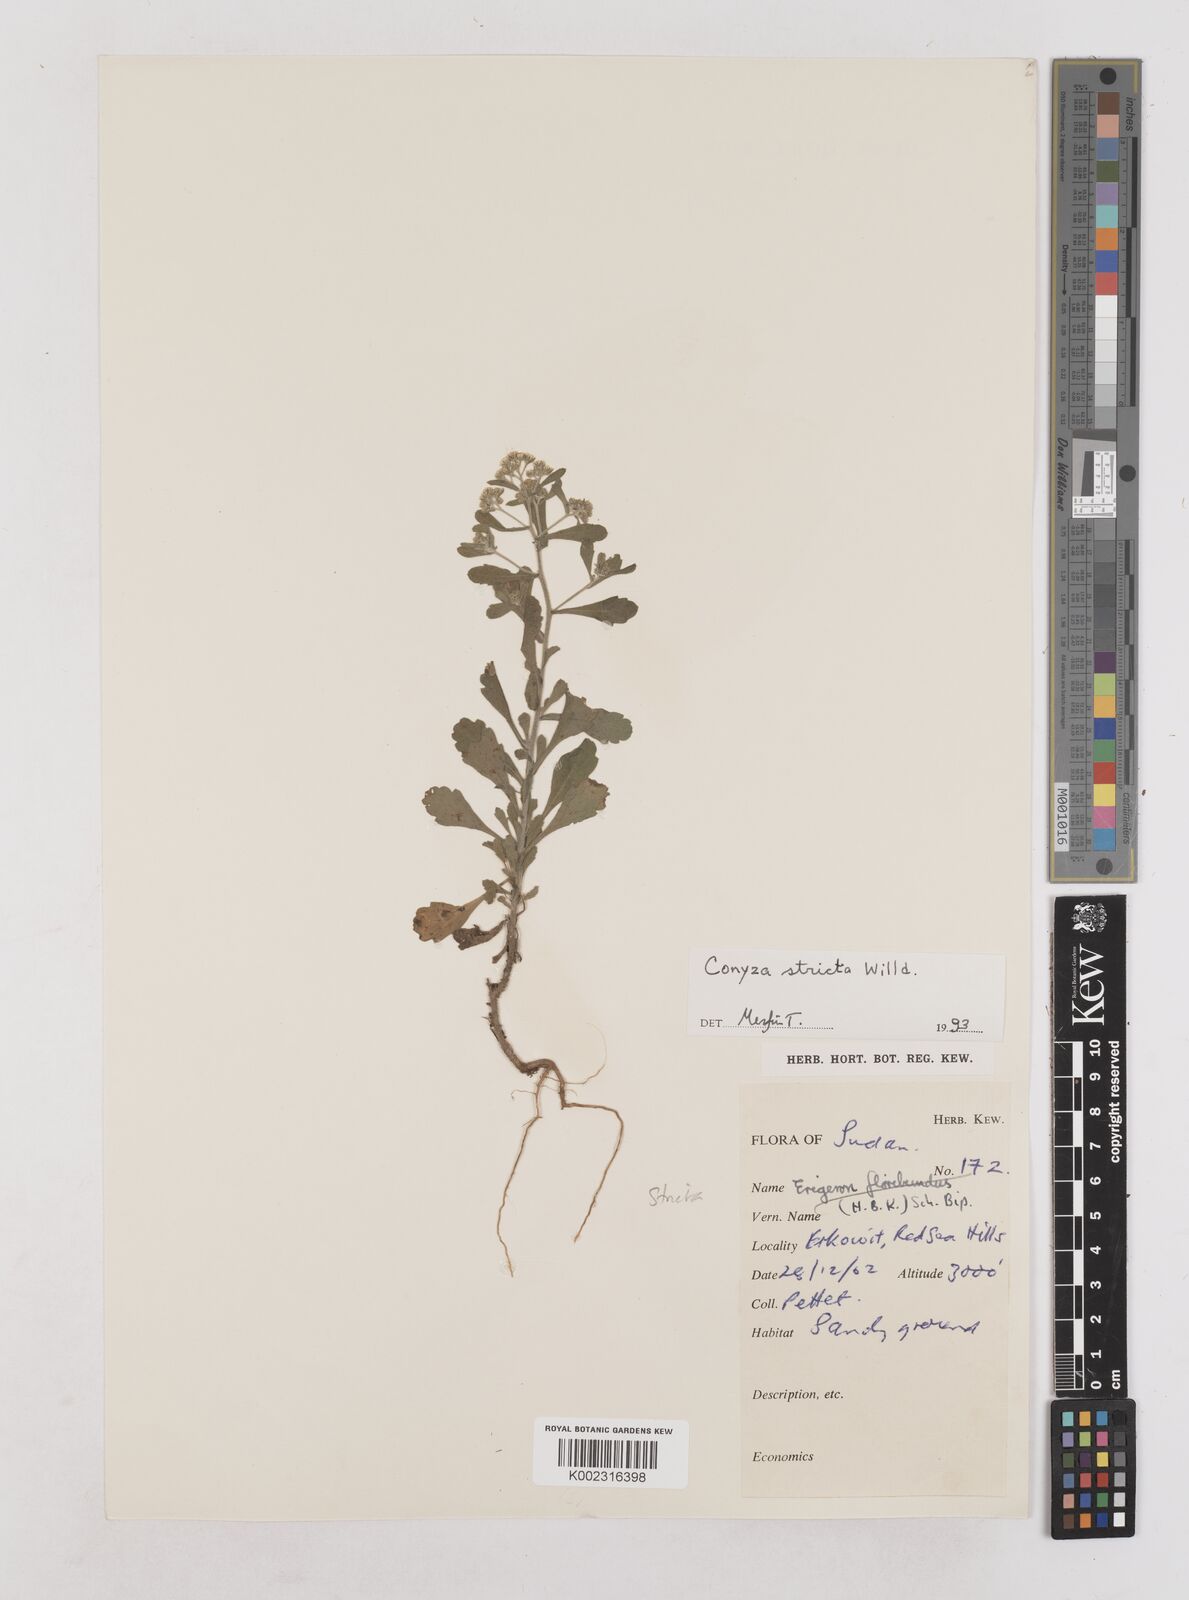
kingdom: Plantae
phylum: Tracheophyta
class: Magnoliopsida
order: Asterales
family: Asteraceae
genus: Nidorella
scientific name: Nidorella triloba
